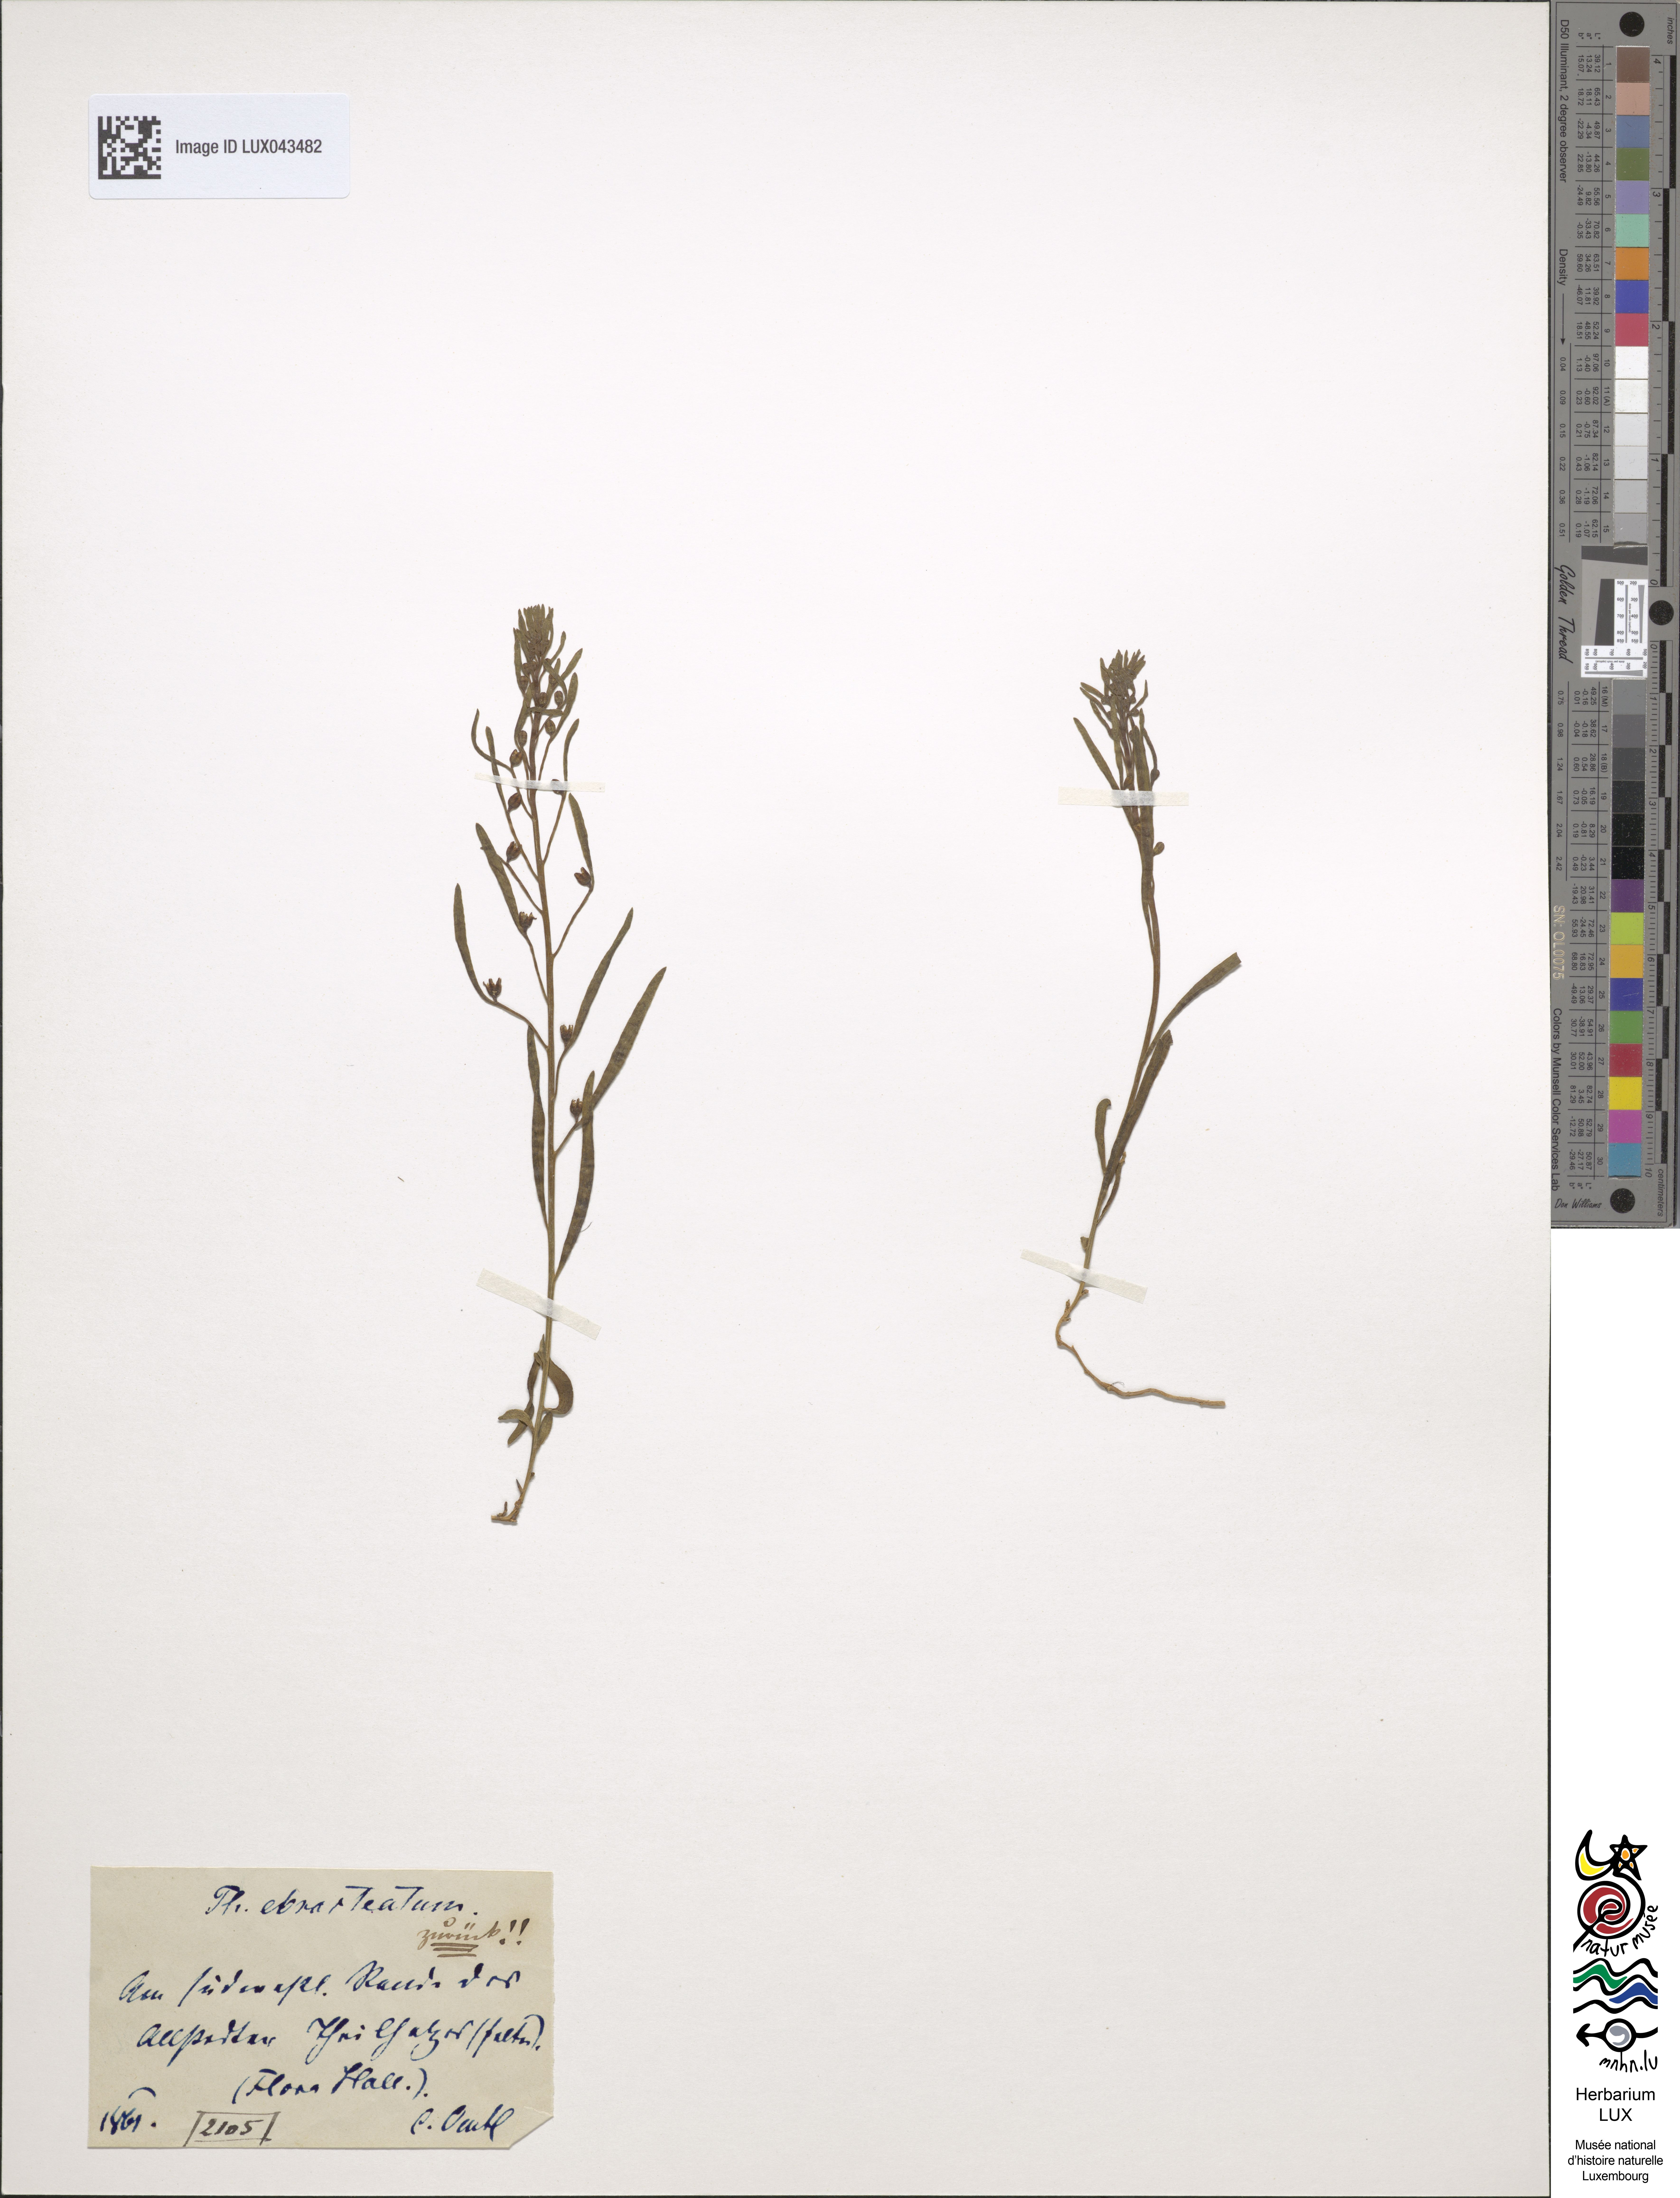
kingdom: Plantae
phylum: Tracheophyta
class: Magnoliopsida
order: Santalales
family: Thesiaceae
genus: Thesium
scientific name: Thesium ebracteatum
